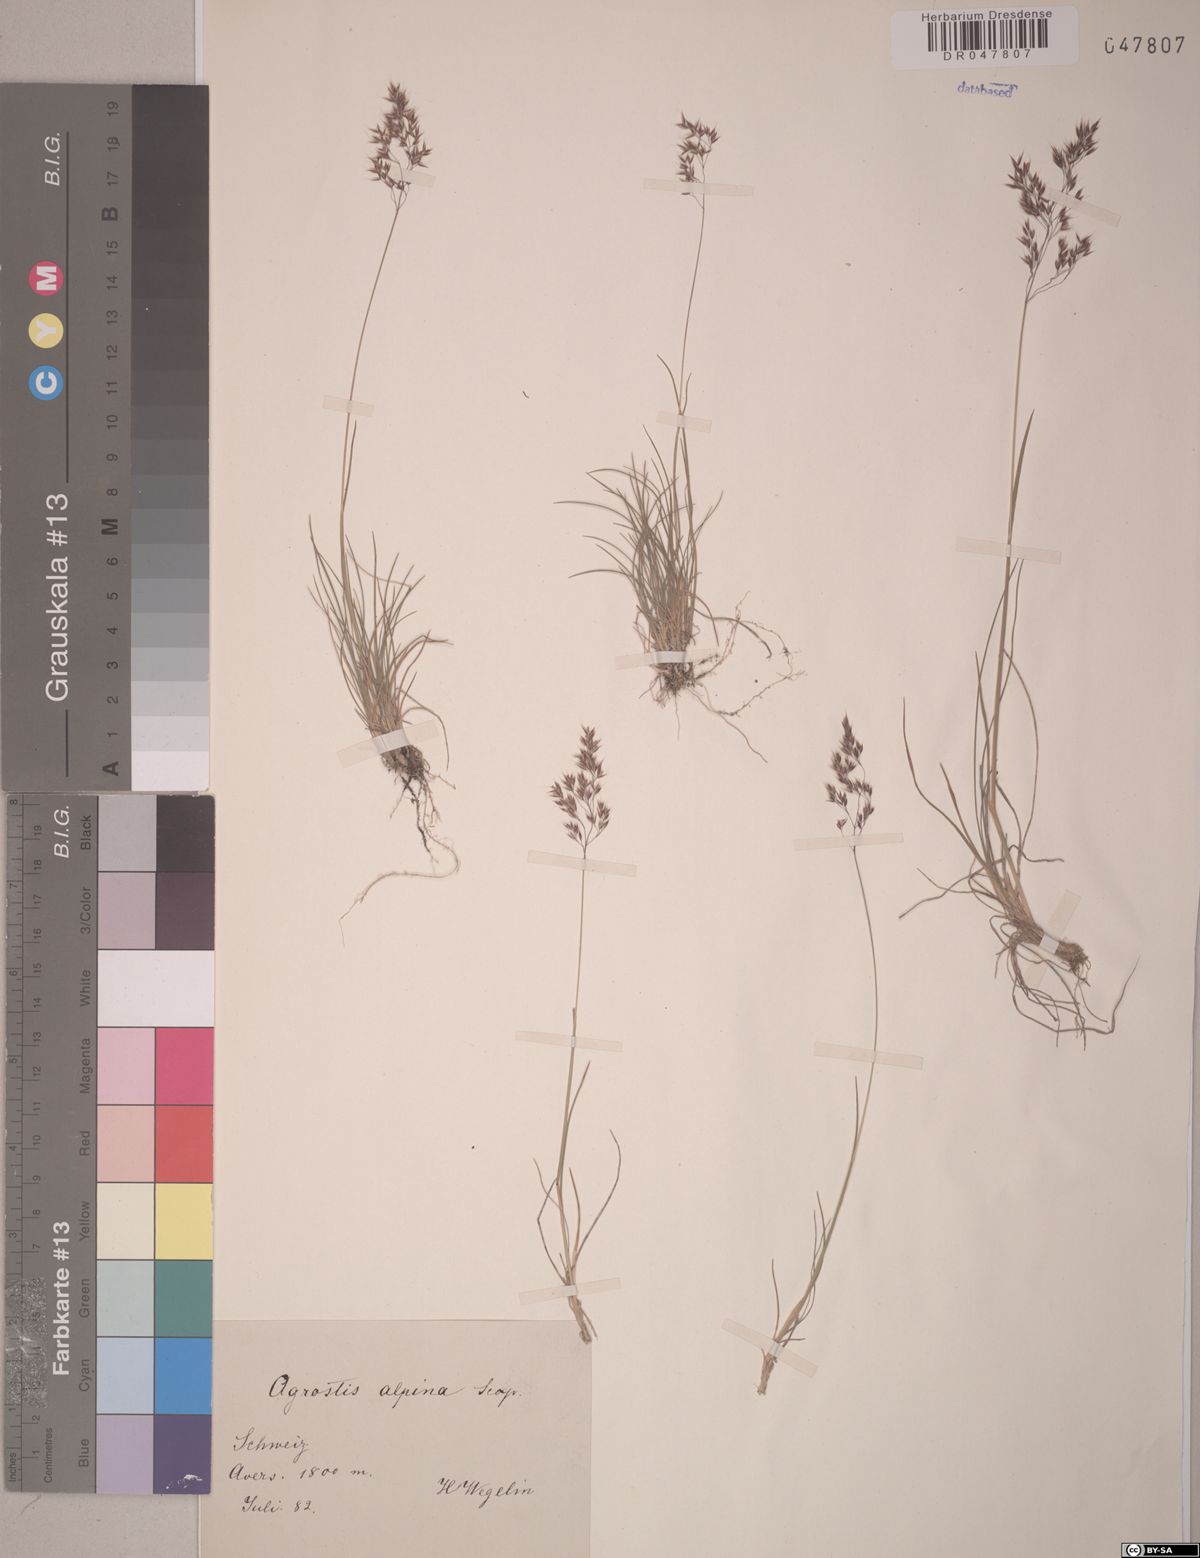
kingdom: Plantae
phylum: Tracheophyta
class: Liliopsida
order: Poales
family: Poaceae
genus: Alpagrostis
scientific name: Alpagrostis alpina
